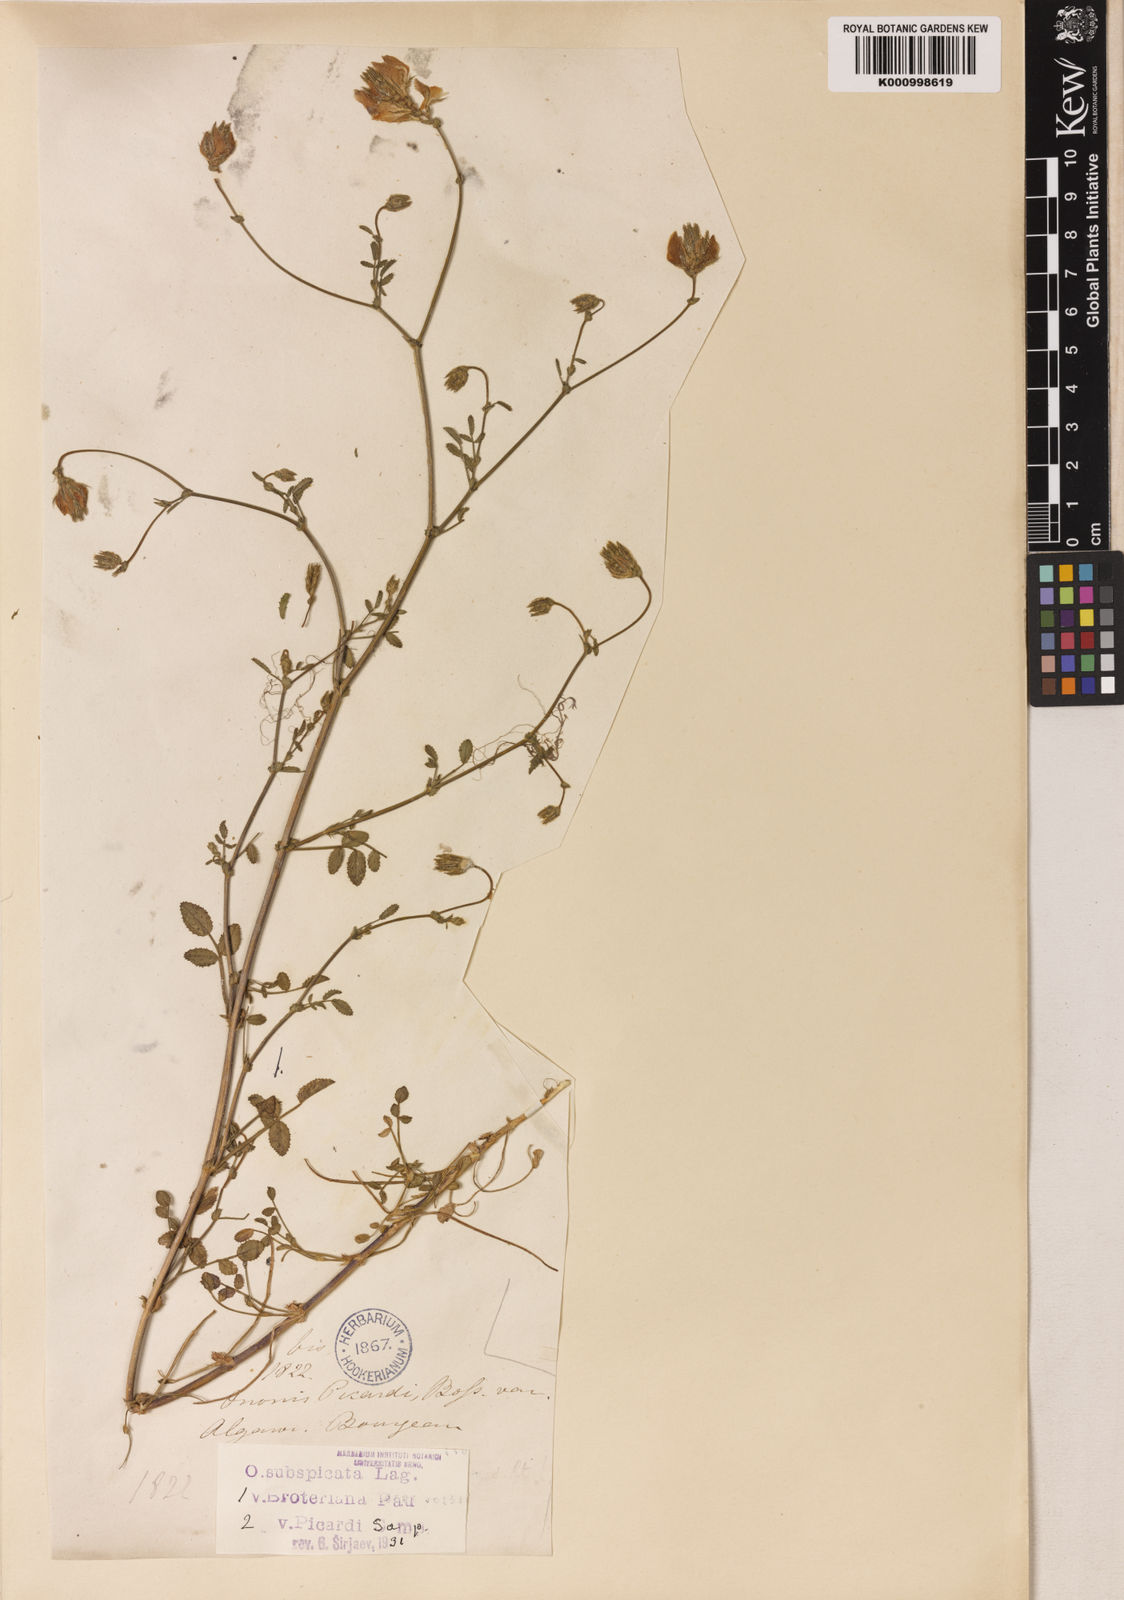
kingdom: Plantae
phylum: Tracheophyta
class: Magnoliopsida
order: Fabales
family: Fabaceae
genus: Ononis
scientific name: Ononis baetica
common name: Andalucian restharrow
